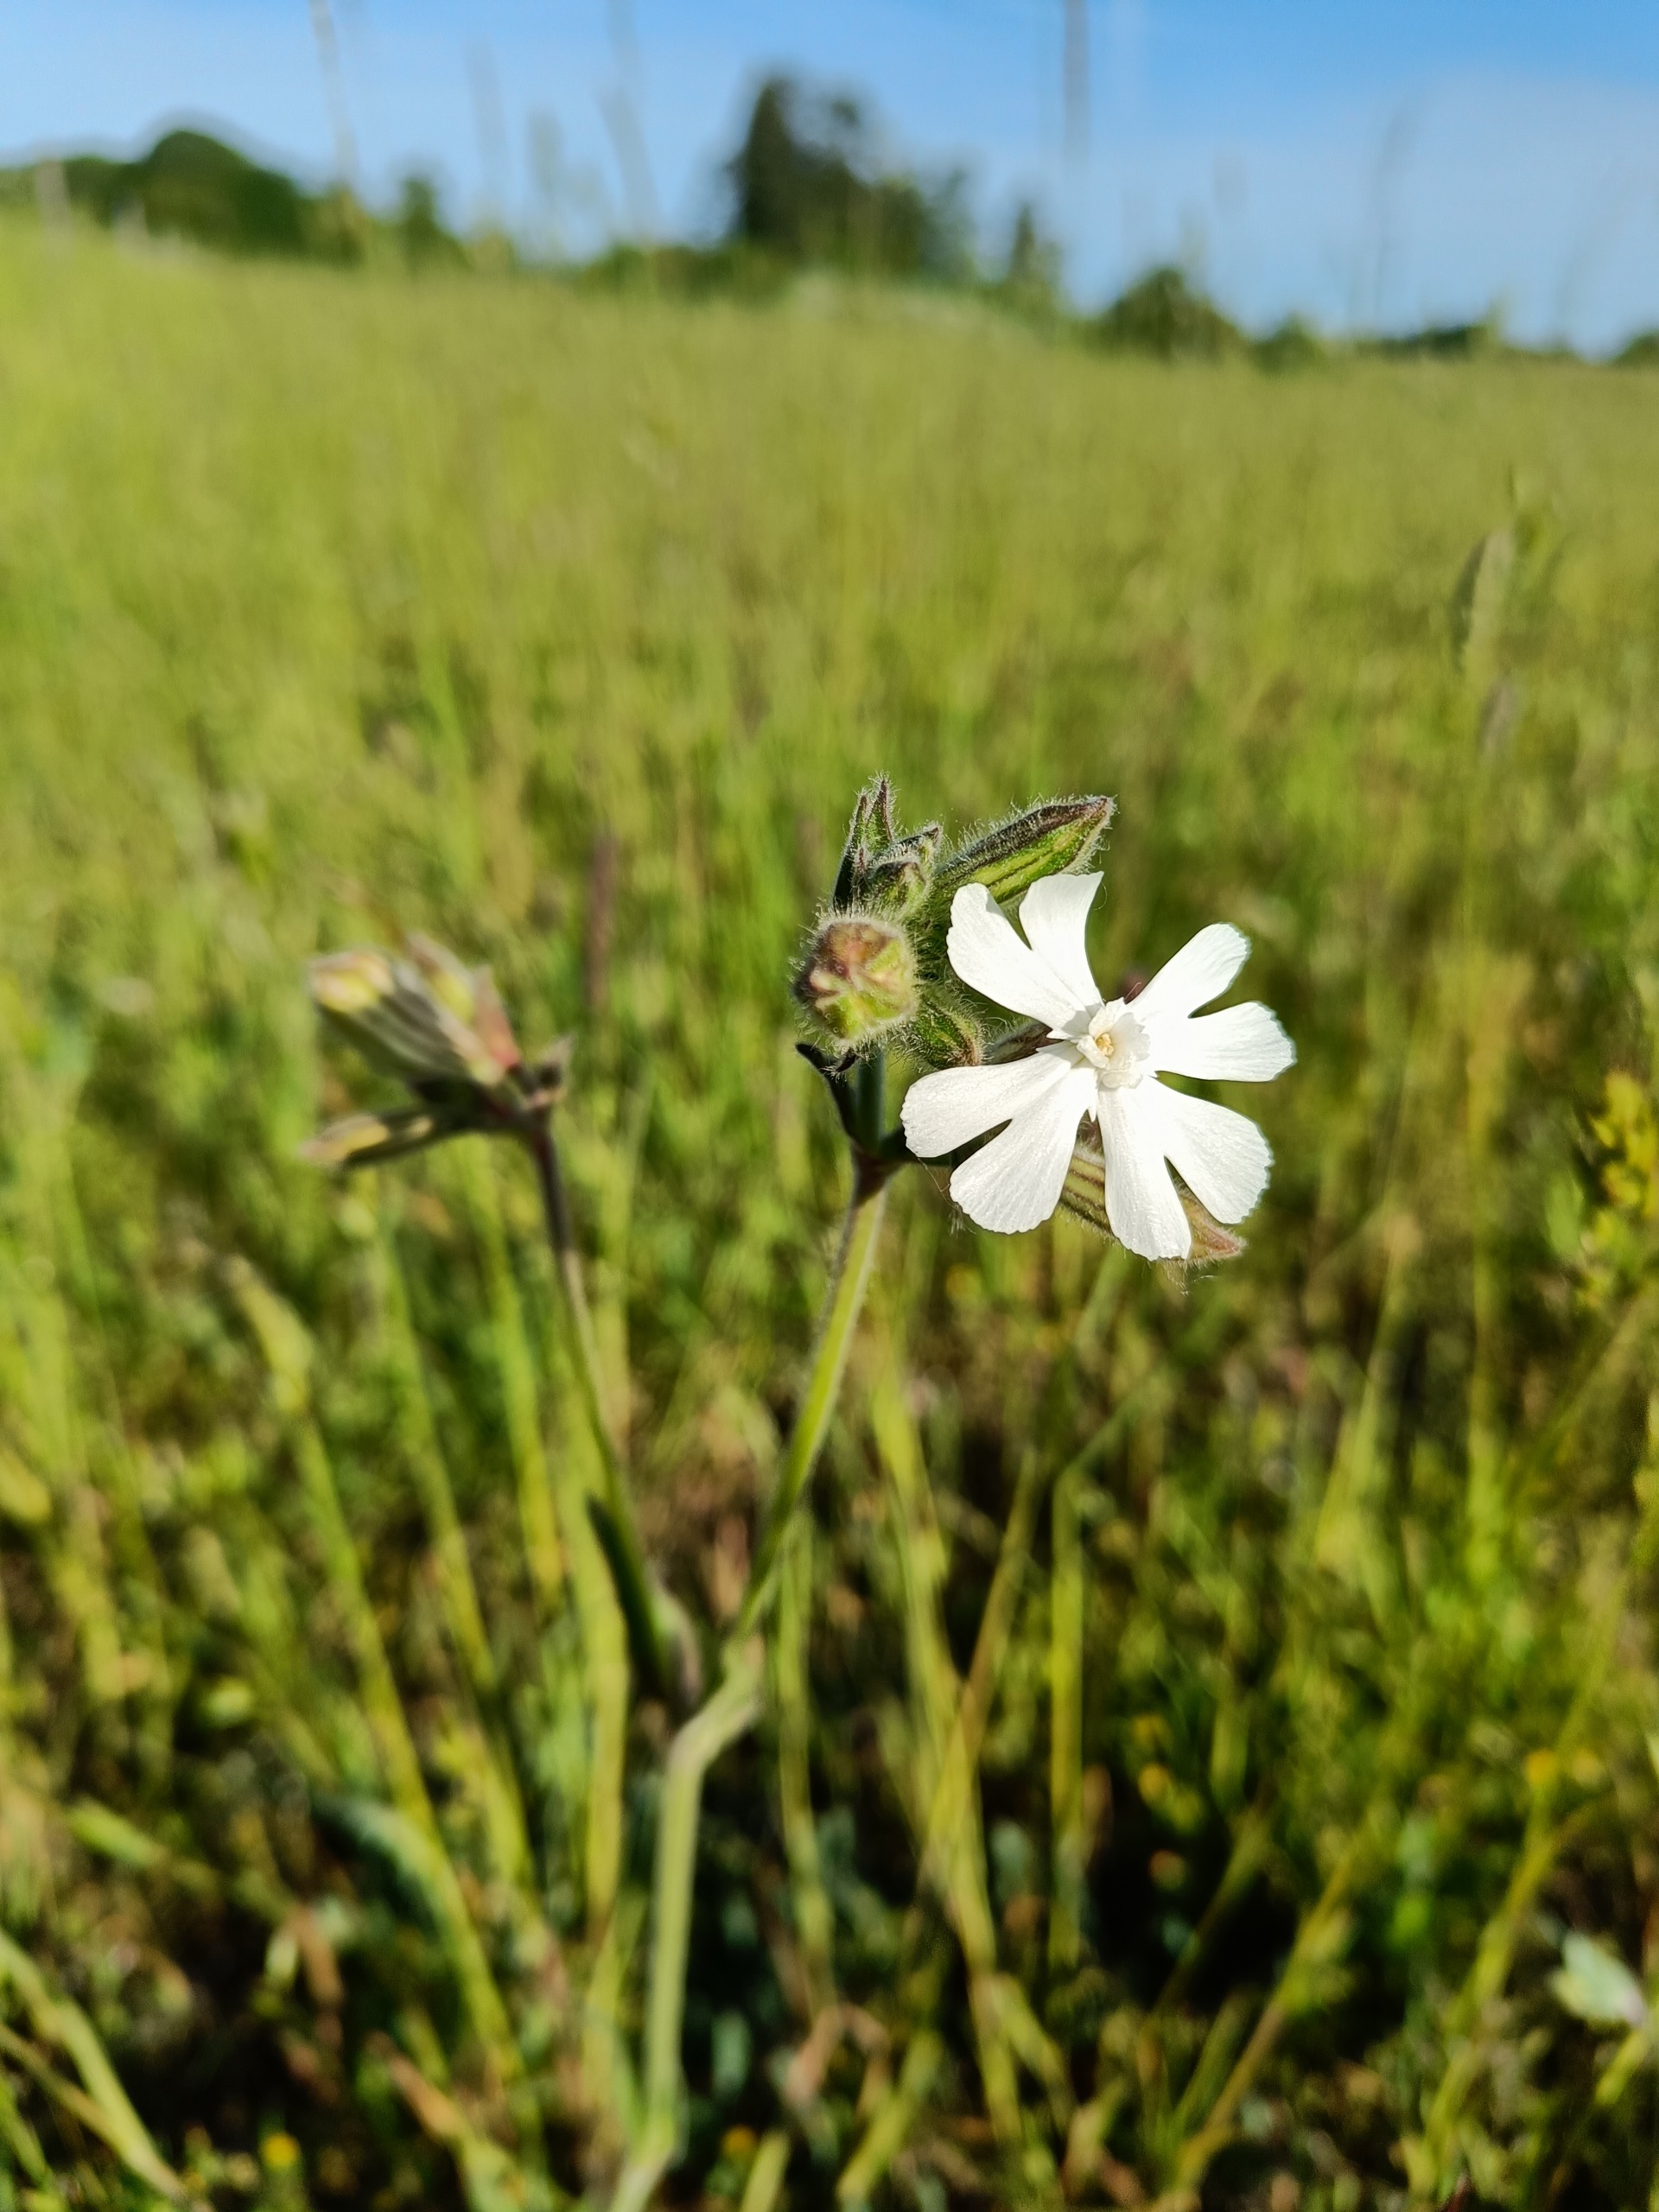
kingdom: Plantae
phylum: Tracheophyta
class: Magnoliopsida
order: Caryophyllales
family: Caryophyllaceae
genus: Silene
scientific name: Silene latifolia
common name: Aftenpragtstjerne
